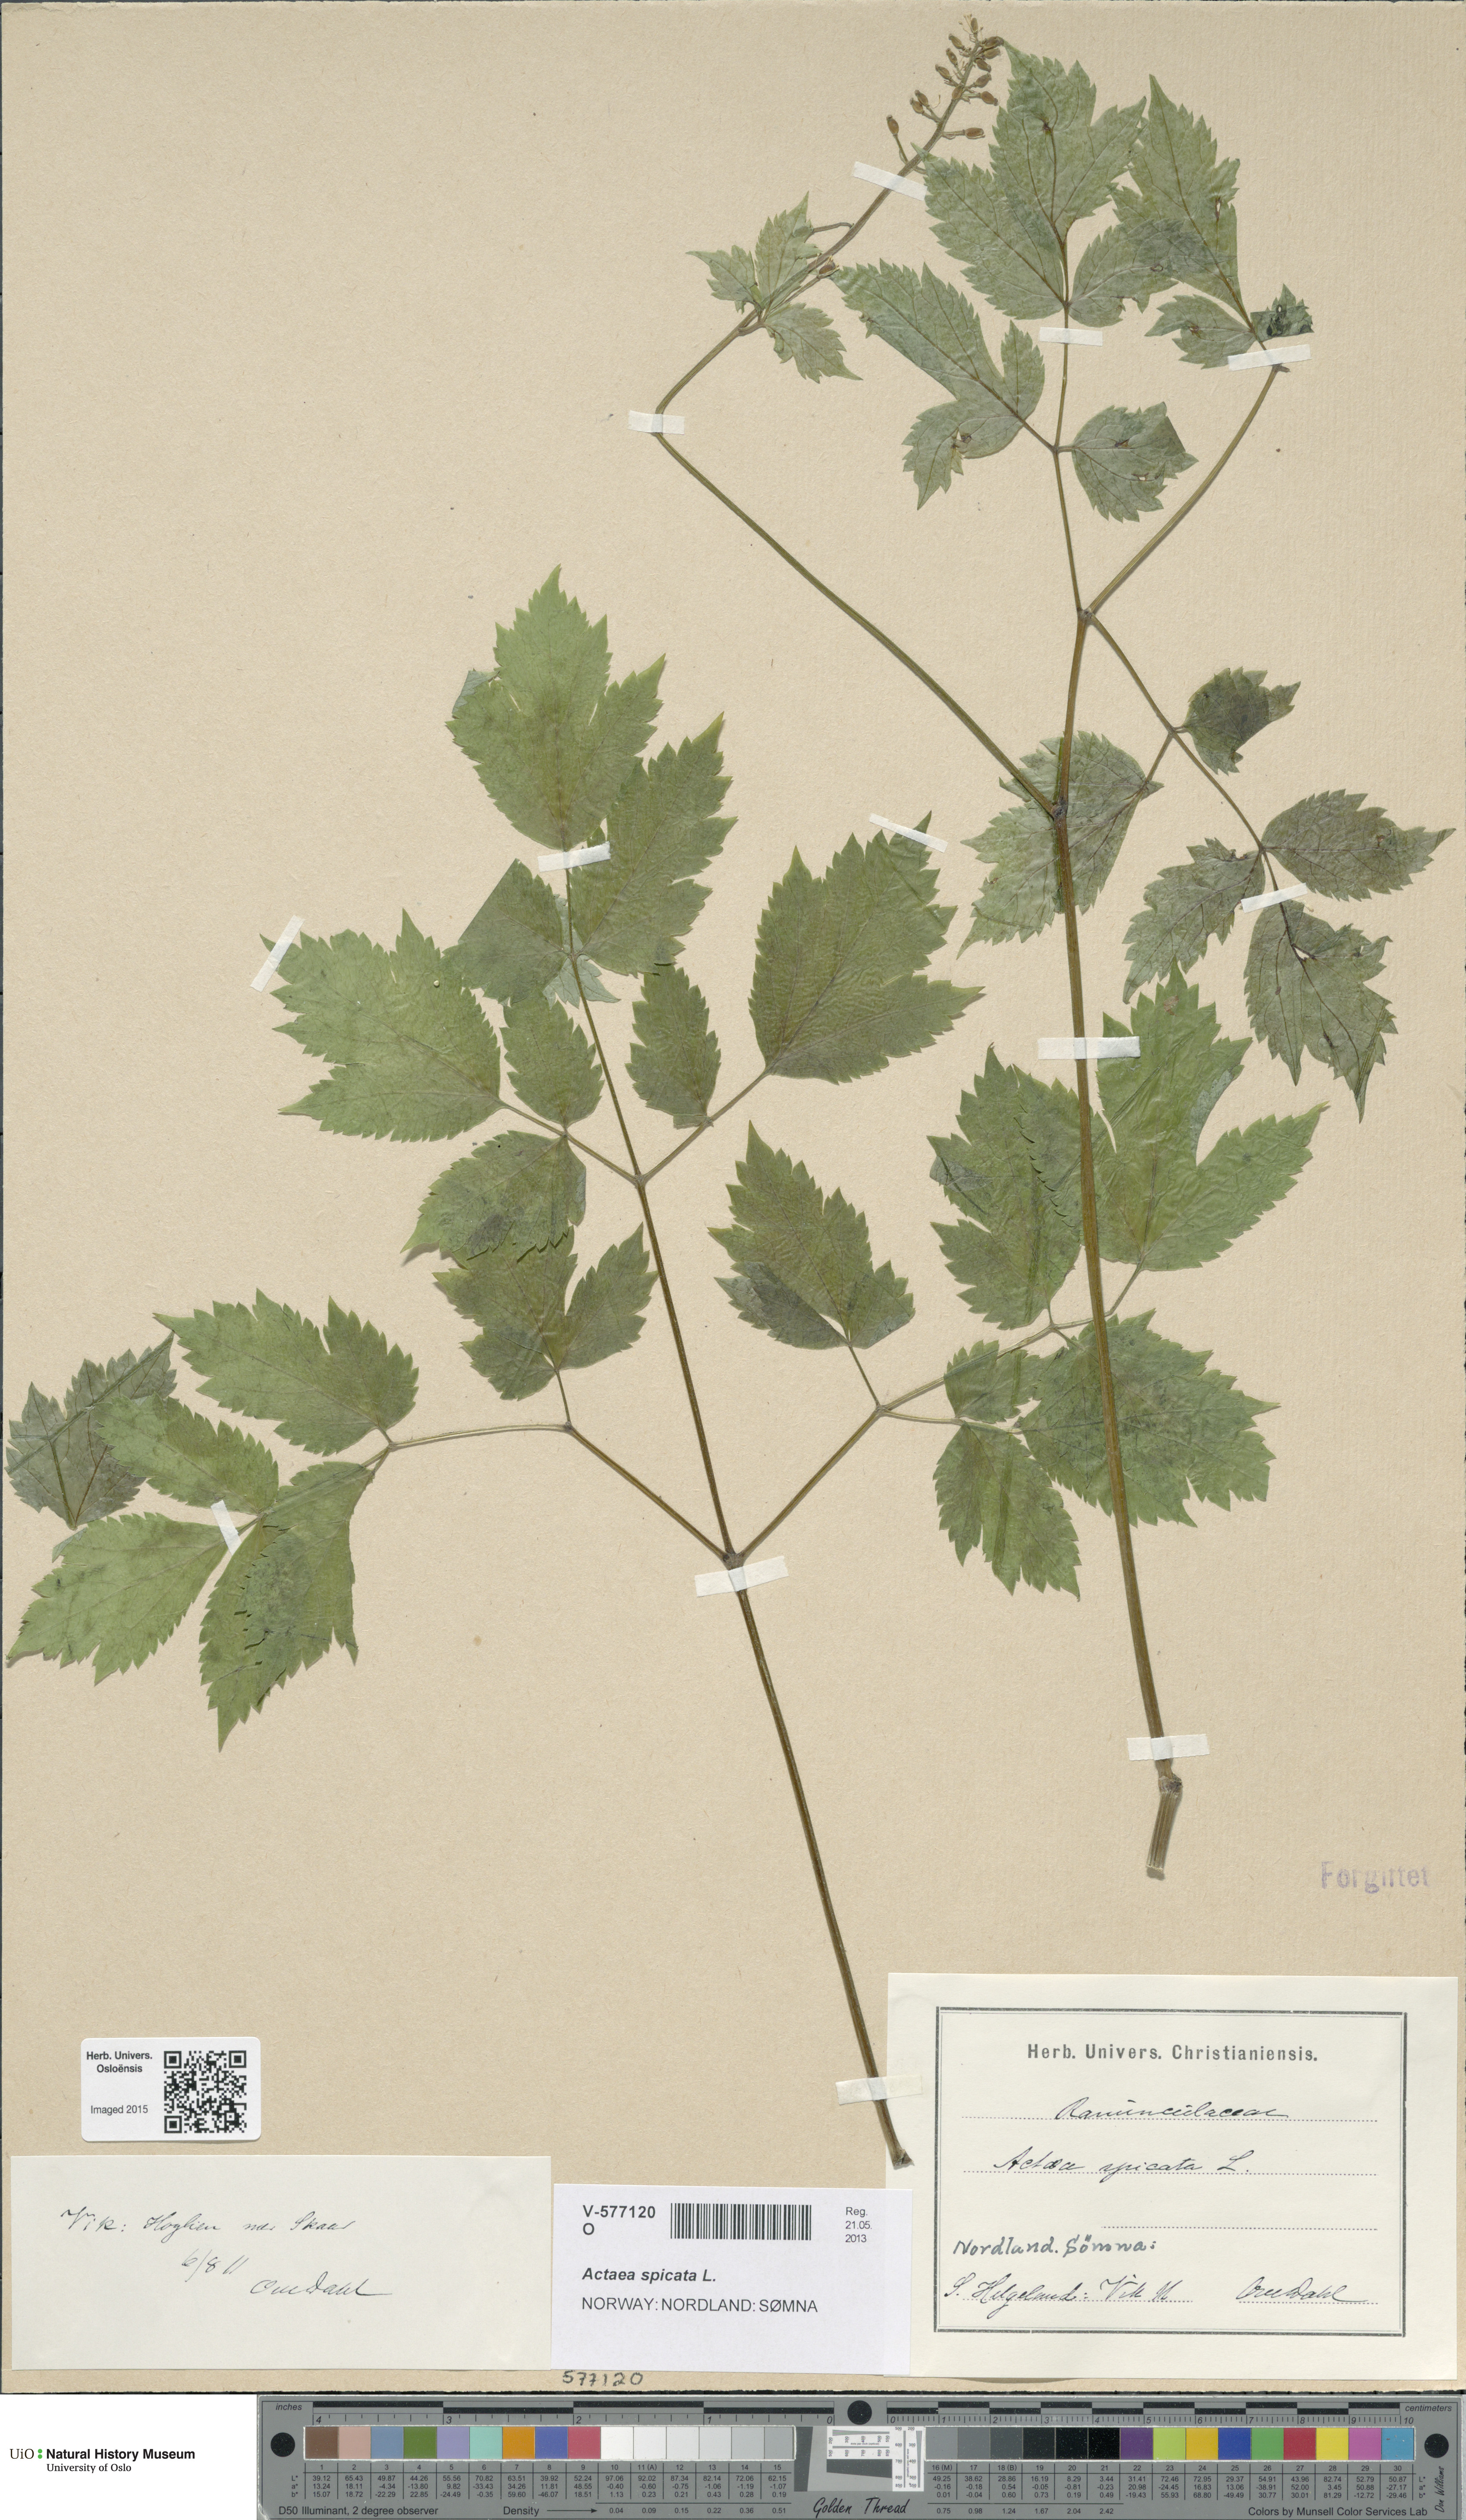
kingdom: Plantae
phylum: Tracheophyta
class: Magnoliopsida
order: Ranunculales
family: Ranunculaceae
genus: Actaea
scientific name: Actaea spicata
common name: Baneberry
